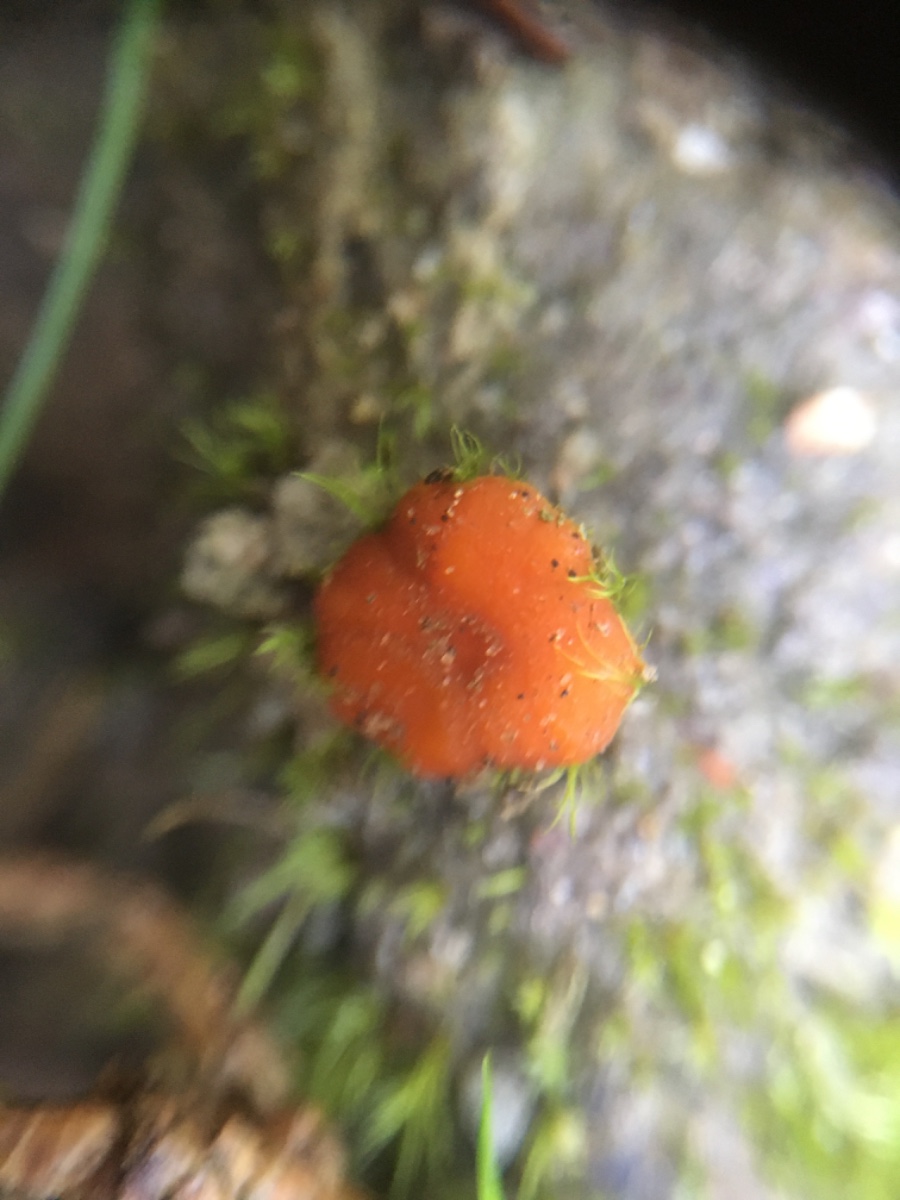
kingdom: Fungi
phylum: Ascomycota
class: Pezizomycetes
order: Pezizales
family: Pyronemataceae
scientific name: Pyronemataceae
